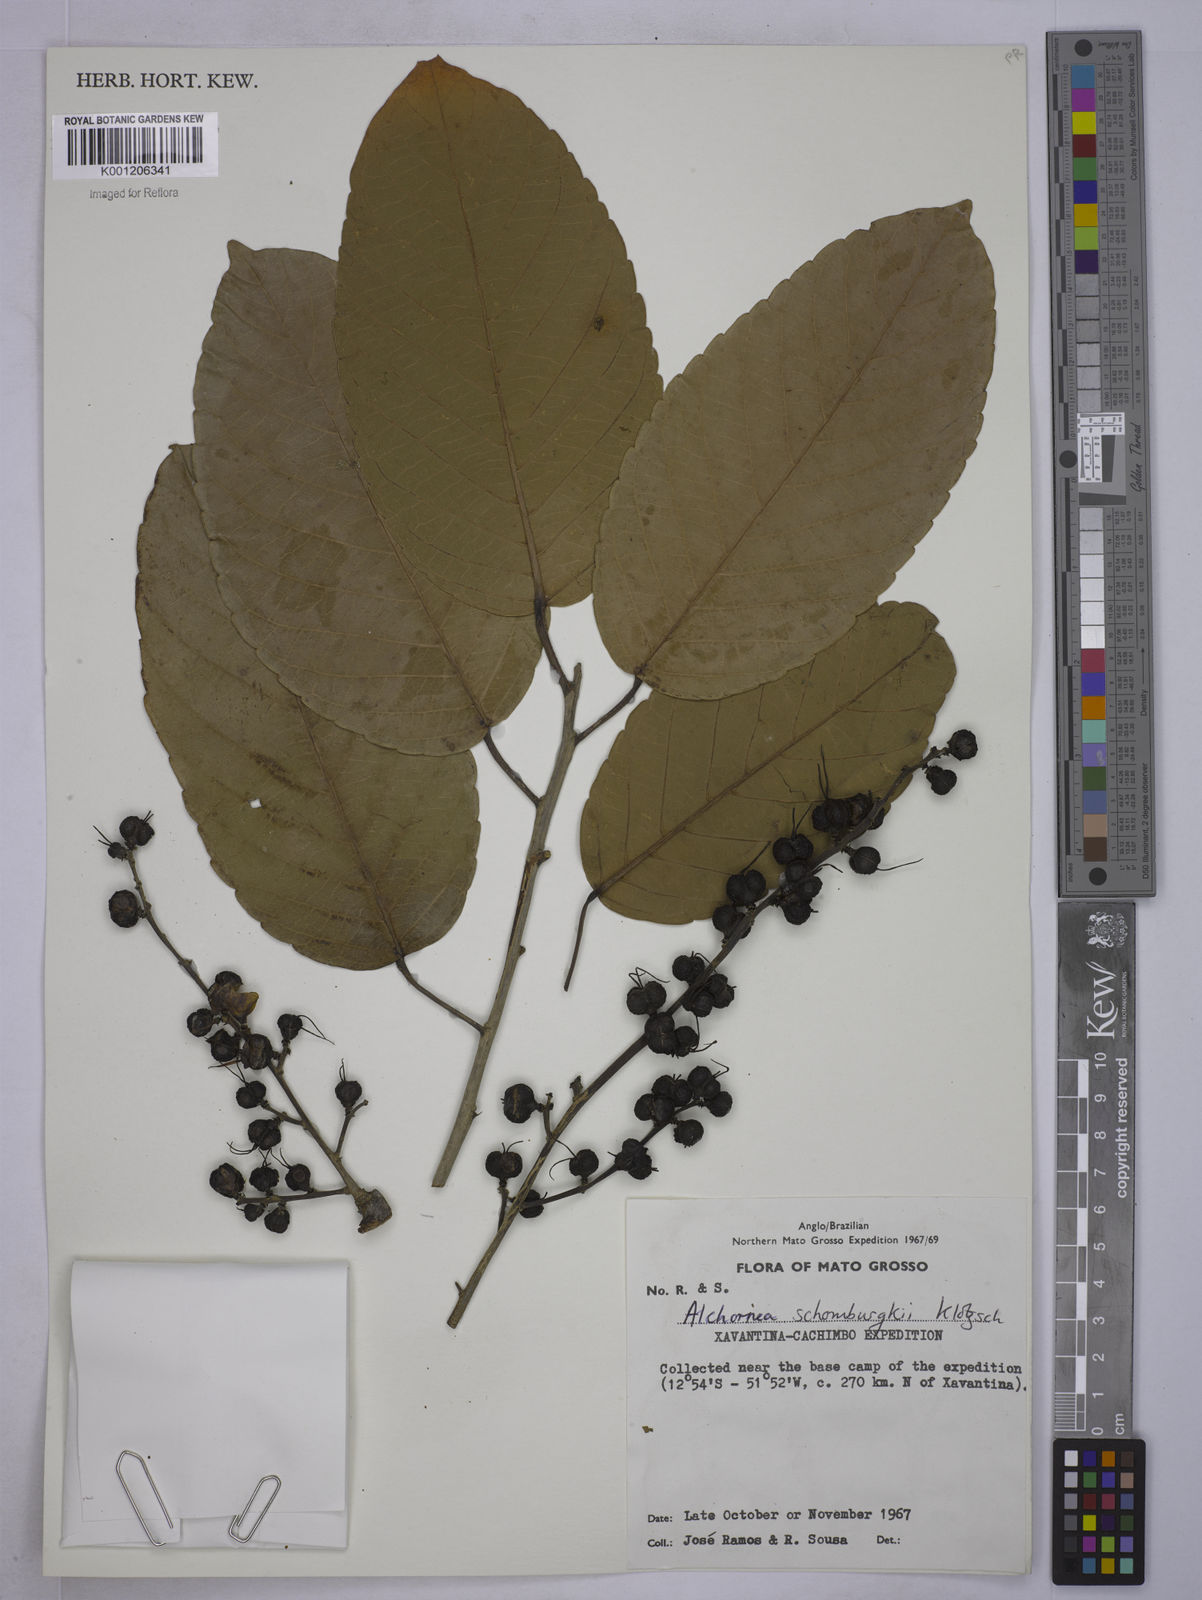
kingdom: Plantae
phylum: Tracheophyta
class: Magnoliopsida
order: Malpighiales
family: Euphorbiaceae
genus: Alchornea
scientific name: Alchornea discolor
